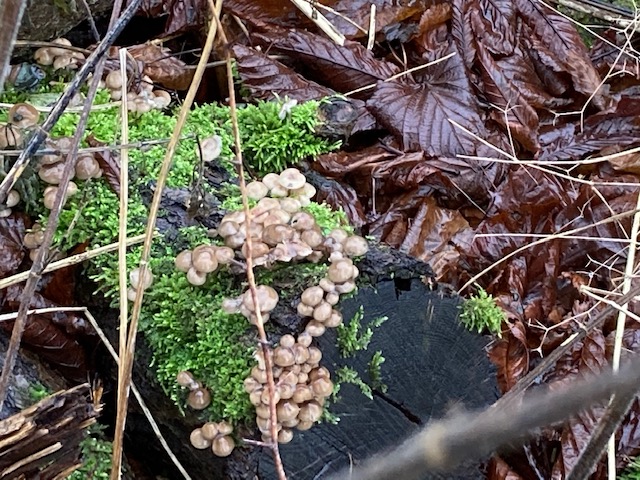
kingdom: Fungi
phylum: Basidiomycota
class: Agaricomycetes
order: Agaricales
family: Mycenaceae
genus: Mycena
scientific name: Mycena tintinnabulum
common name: vinter-huesvamp
